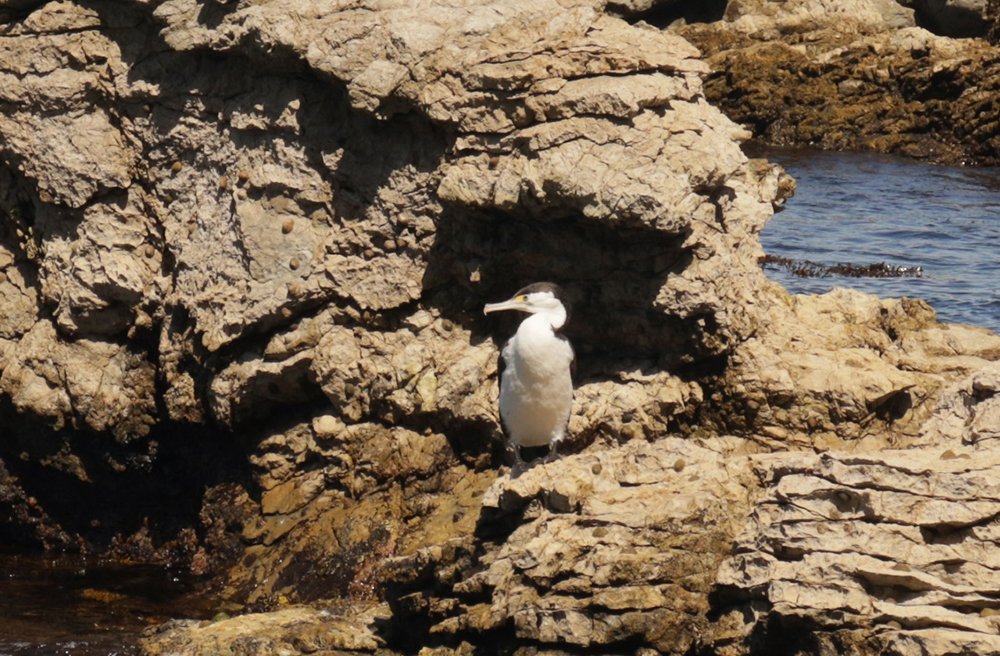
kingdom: Animalia
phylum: Chordata
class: Aves
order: Suliformes
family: Phalacrocoracidae
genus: Phalacrocorax
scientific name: Phalacrocorax varius
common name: Pied cormorant
